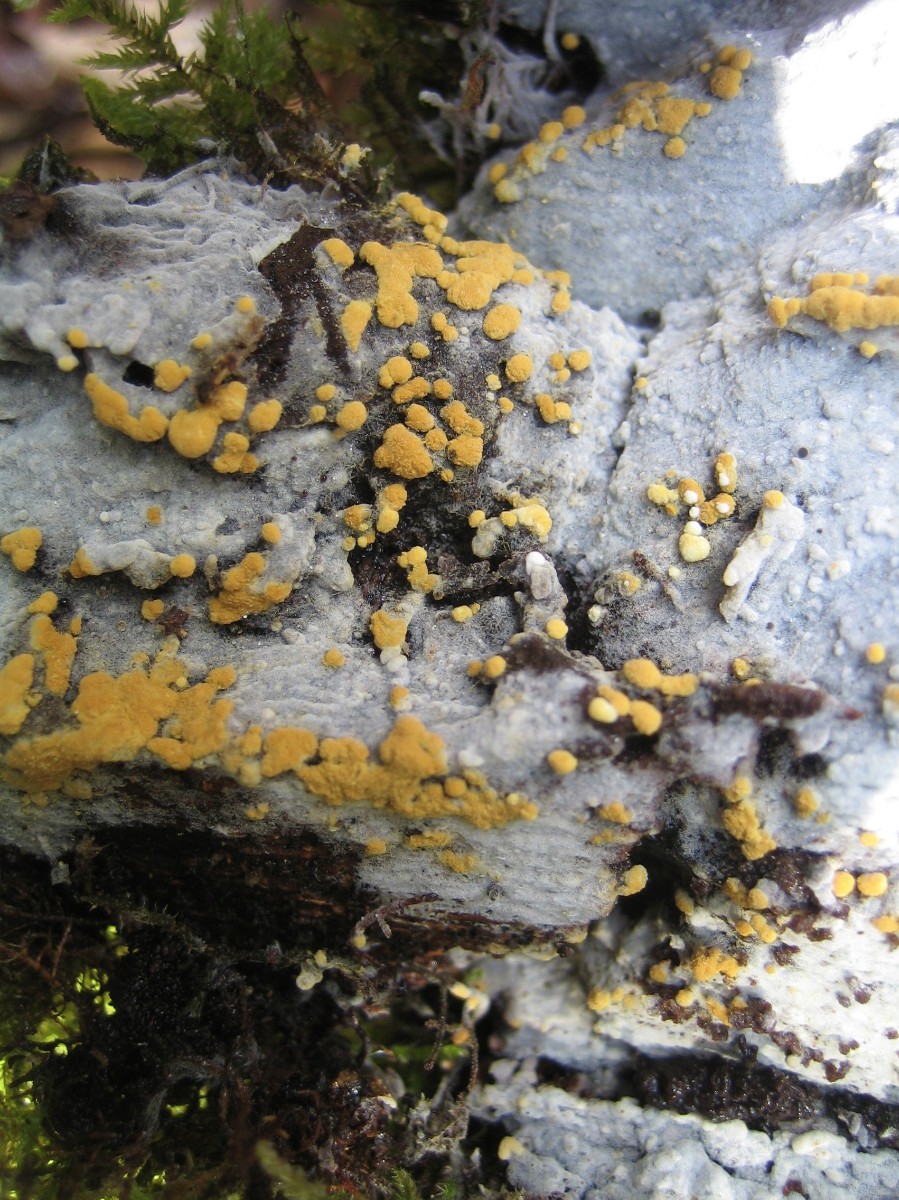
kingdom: Fungi
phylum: Basidiomycota
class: Agaricomycetes
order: Cantharellales
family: Botryobasidiaceae
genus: Botryobasidium
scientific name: Botryobasidium aureum
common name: gylden spindhinde
